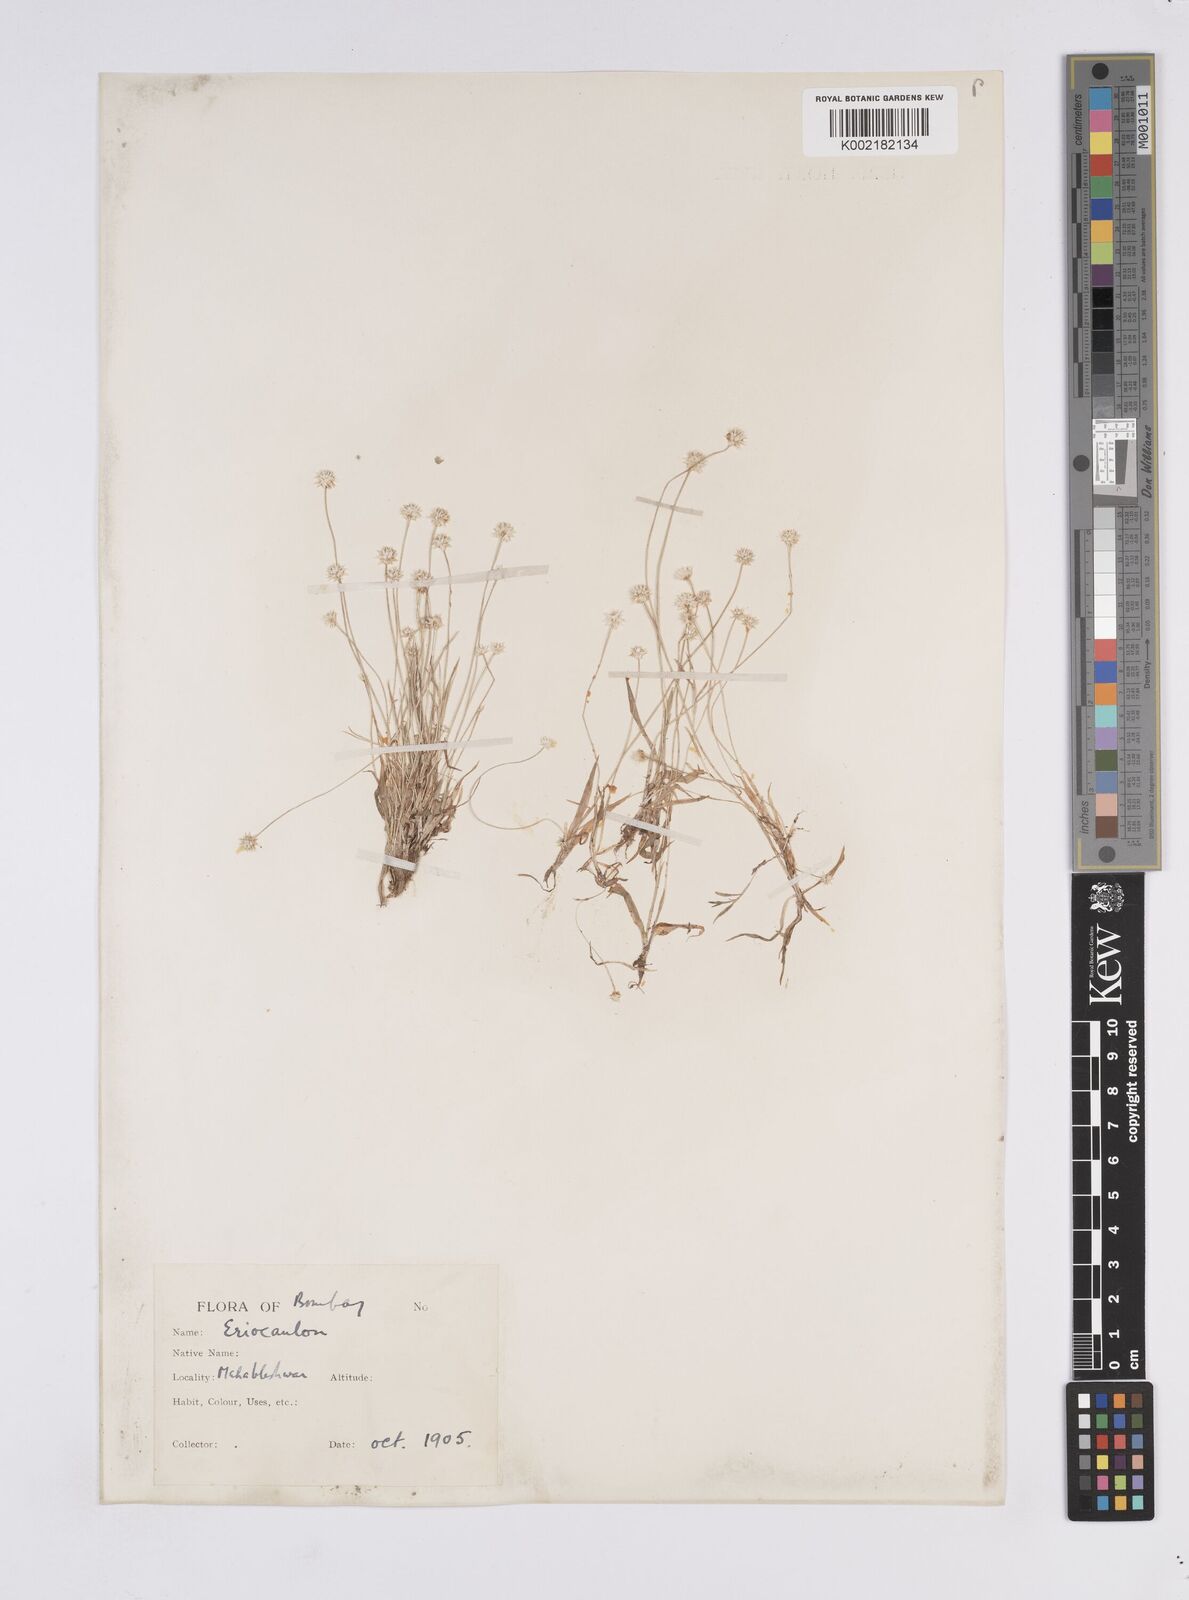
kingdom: Plantae
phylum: Tracheophyta
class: Liliopsida
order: Poales
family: Eriocaulaceae
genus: Eriocaulon
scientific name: Eriocaulon
